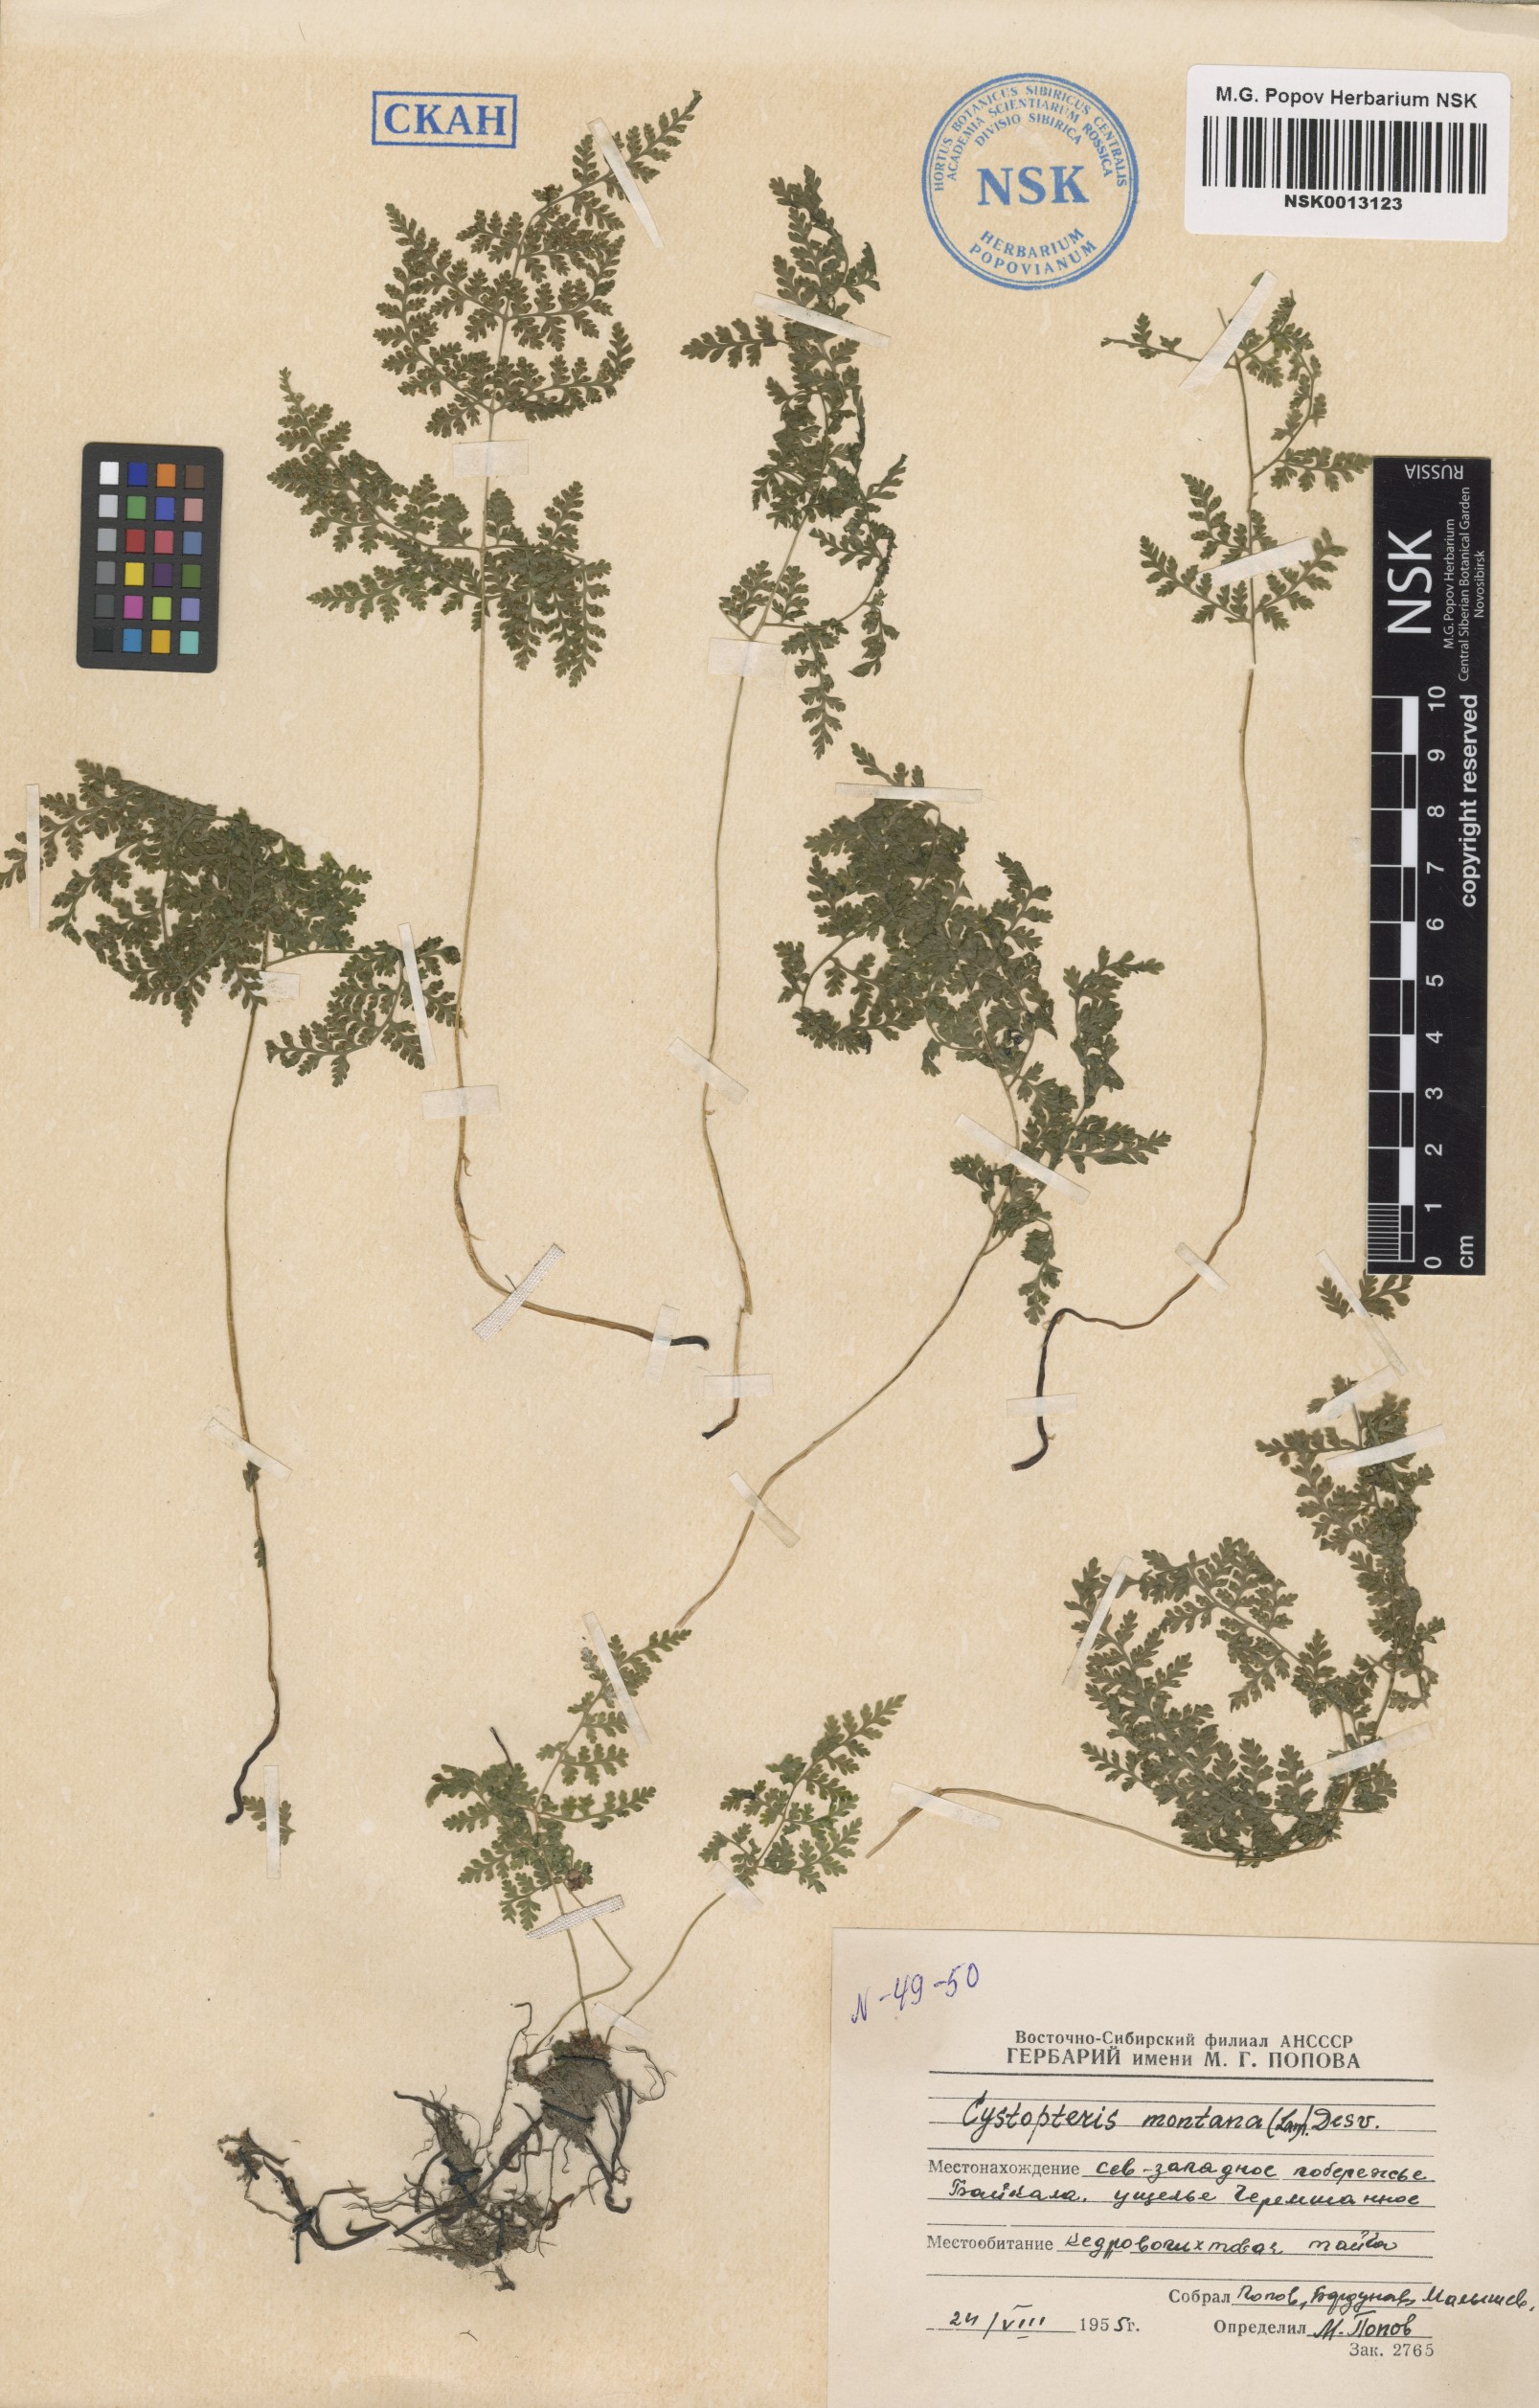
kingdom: Plantae
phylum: Tracheophyta
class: Polypodiopsida
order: Polypodiales
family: Cystopteridaceae
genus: Cystopteris
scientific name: Cystopteris montana
